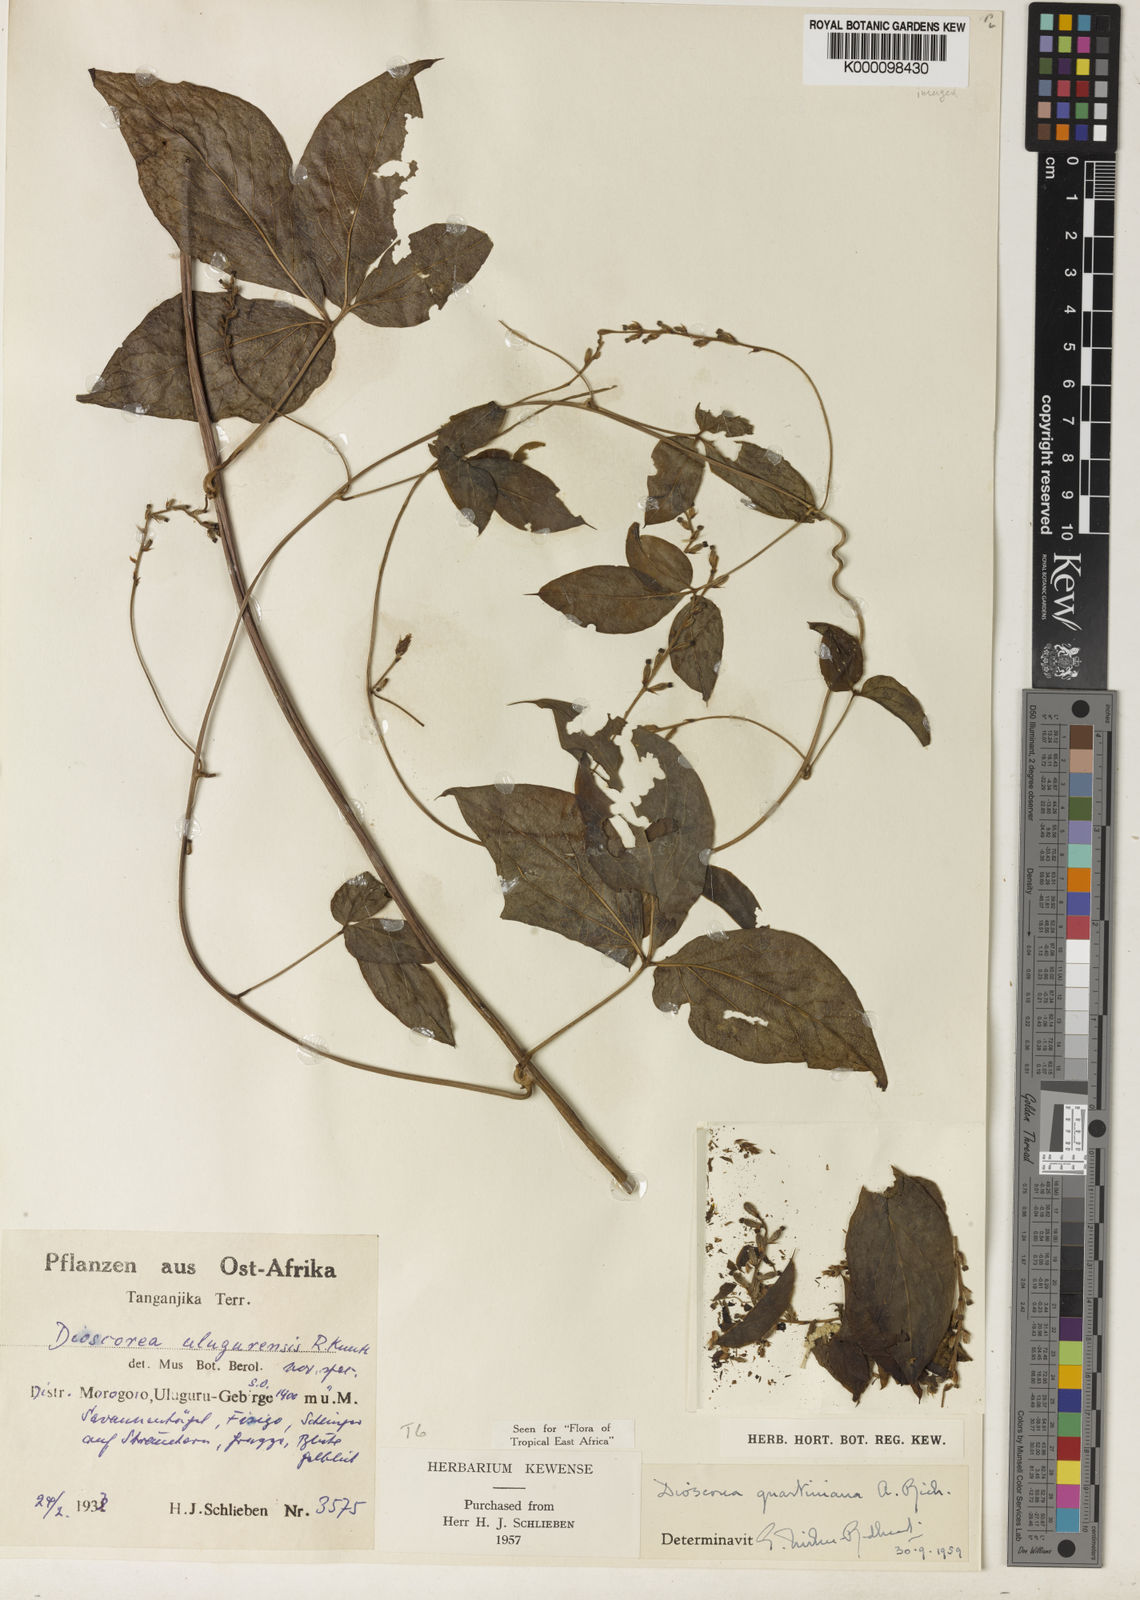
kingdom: Plantae
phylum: Tracheophyta
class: Liliopsida
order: Dioscoreales
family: Dioscoreaceae
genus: Dioscorea
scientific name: Dioscorea quartiniana
